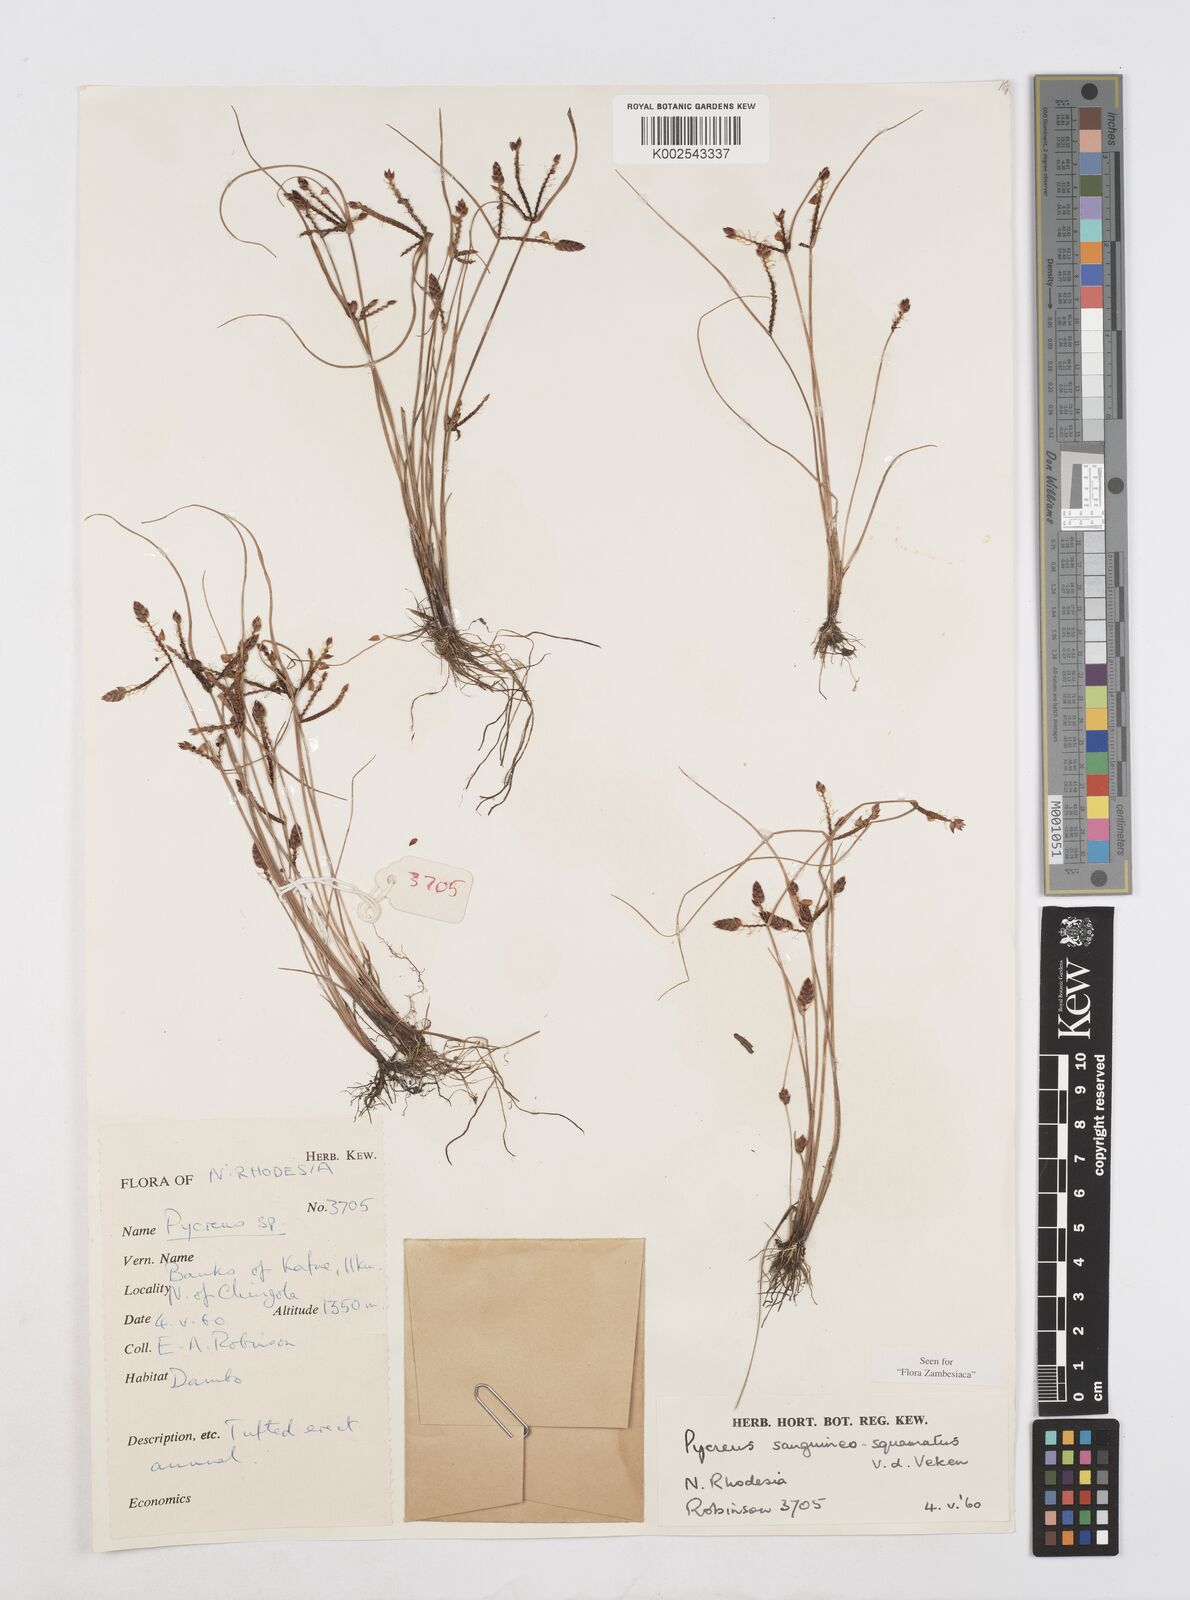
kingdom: Plantae
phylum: Tracheophyta
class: Liliopsida
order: Poales
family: Cyperaceae
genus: Cyperus
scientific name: Cyperus
